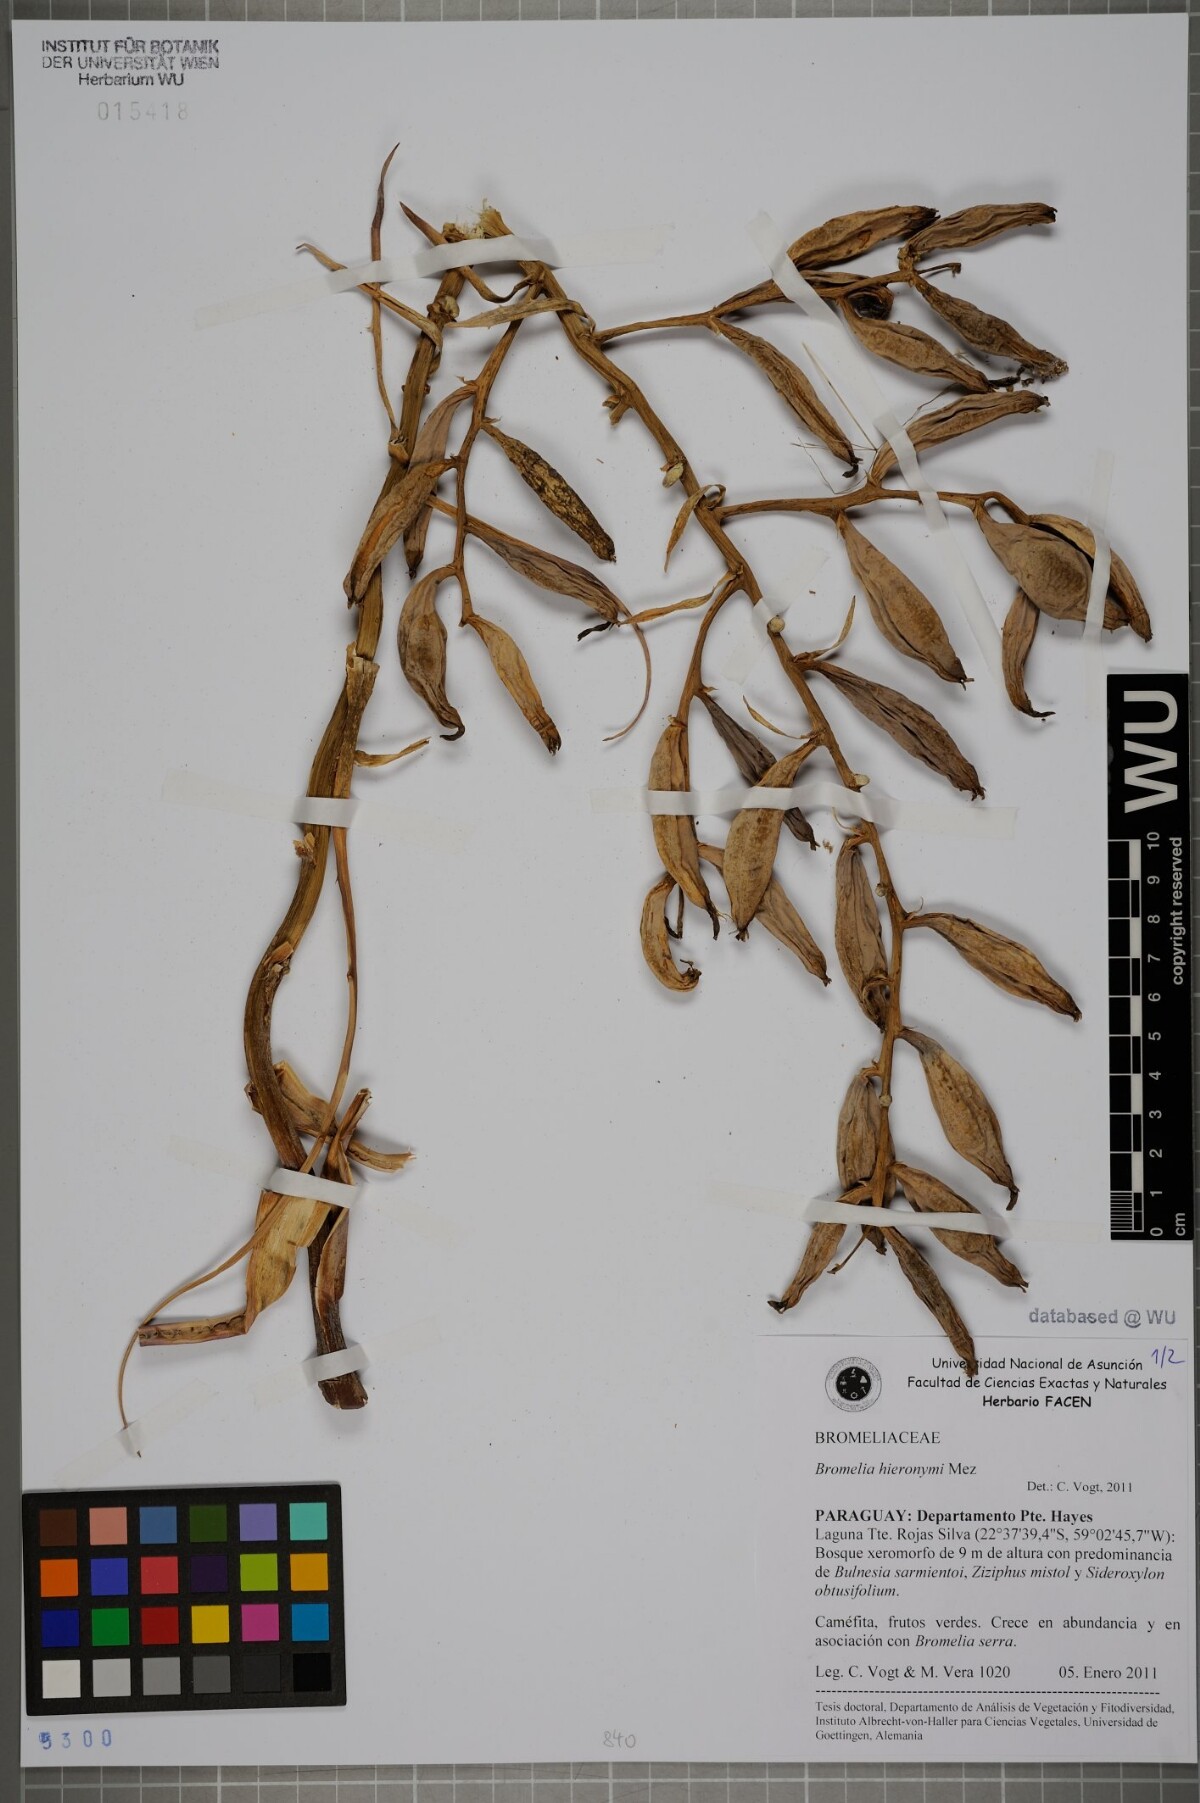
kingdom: Plantae
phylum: Tracheophyta
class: Liliopsida
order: Poales
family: Bromeliaceae
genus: Deinacanthon
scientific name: Deinacanthon urbanianum
